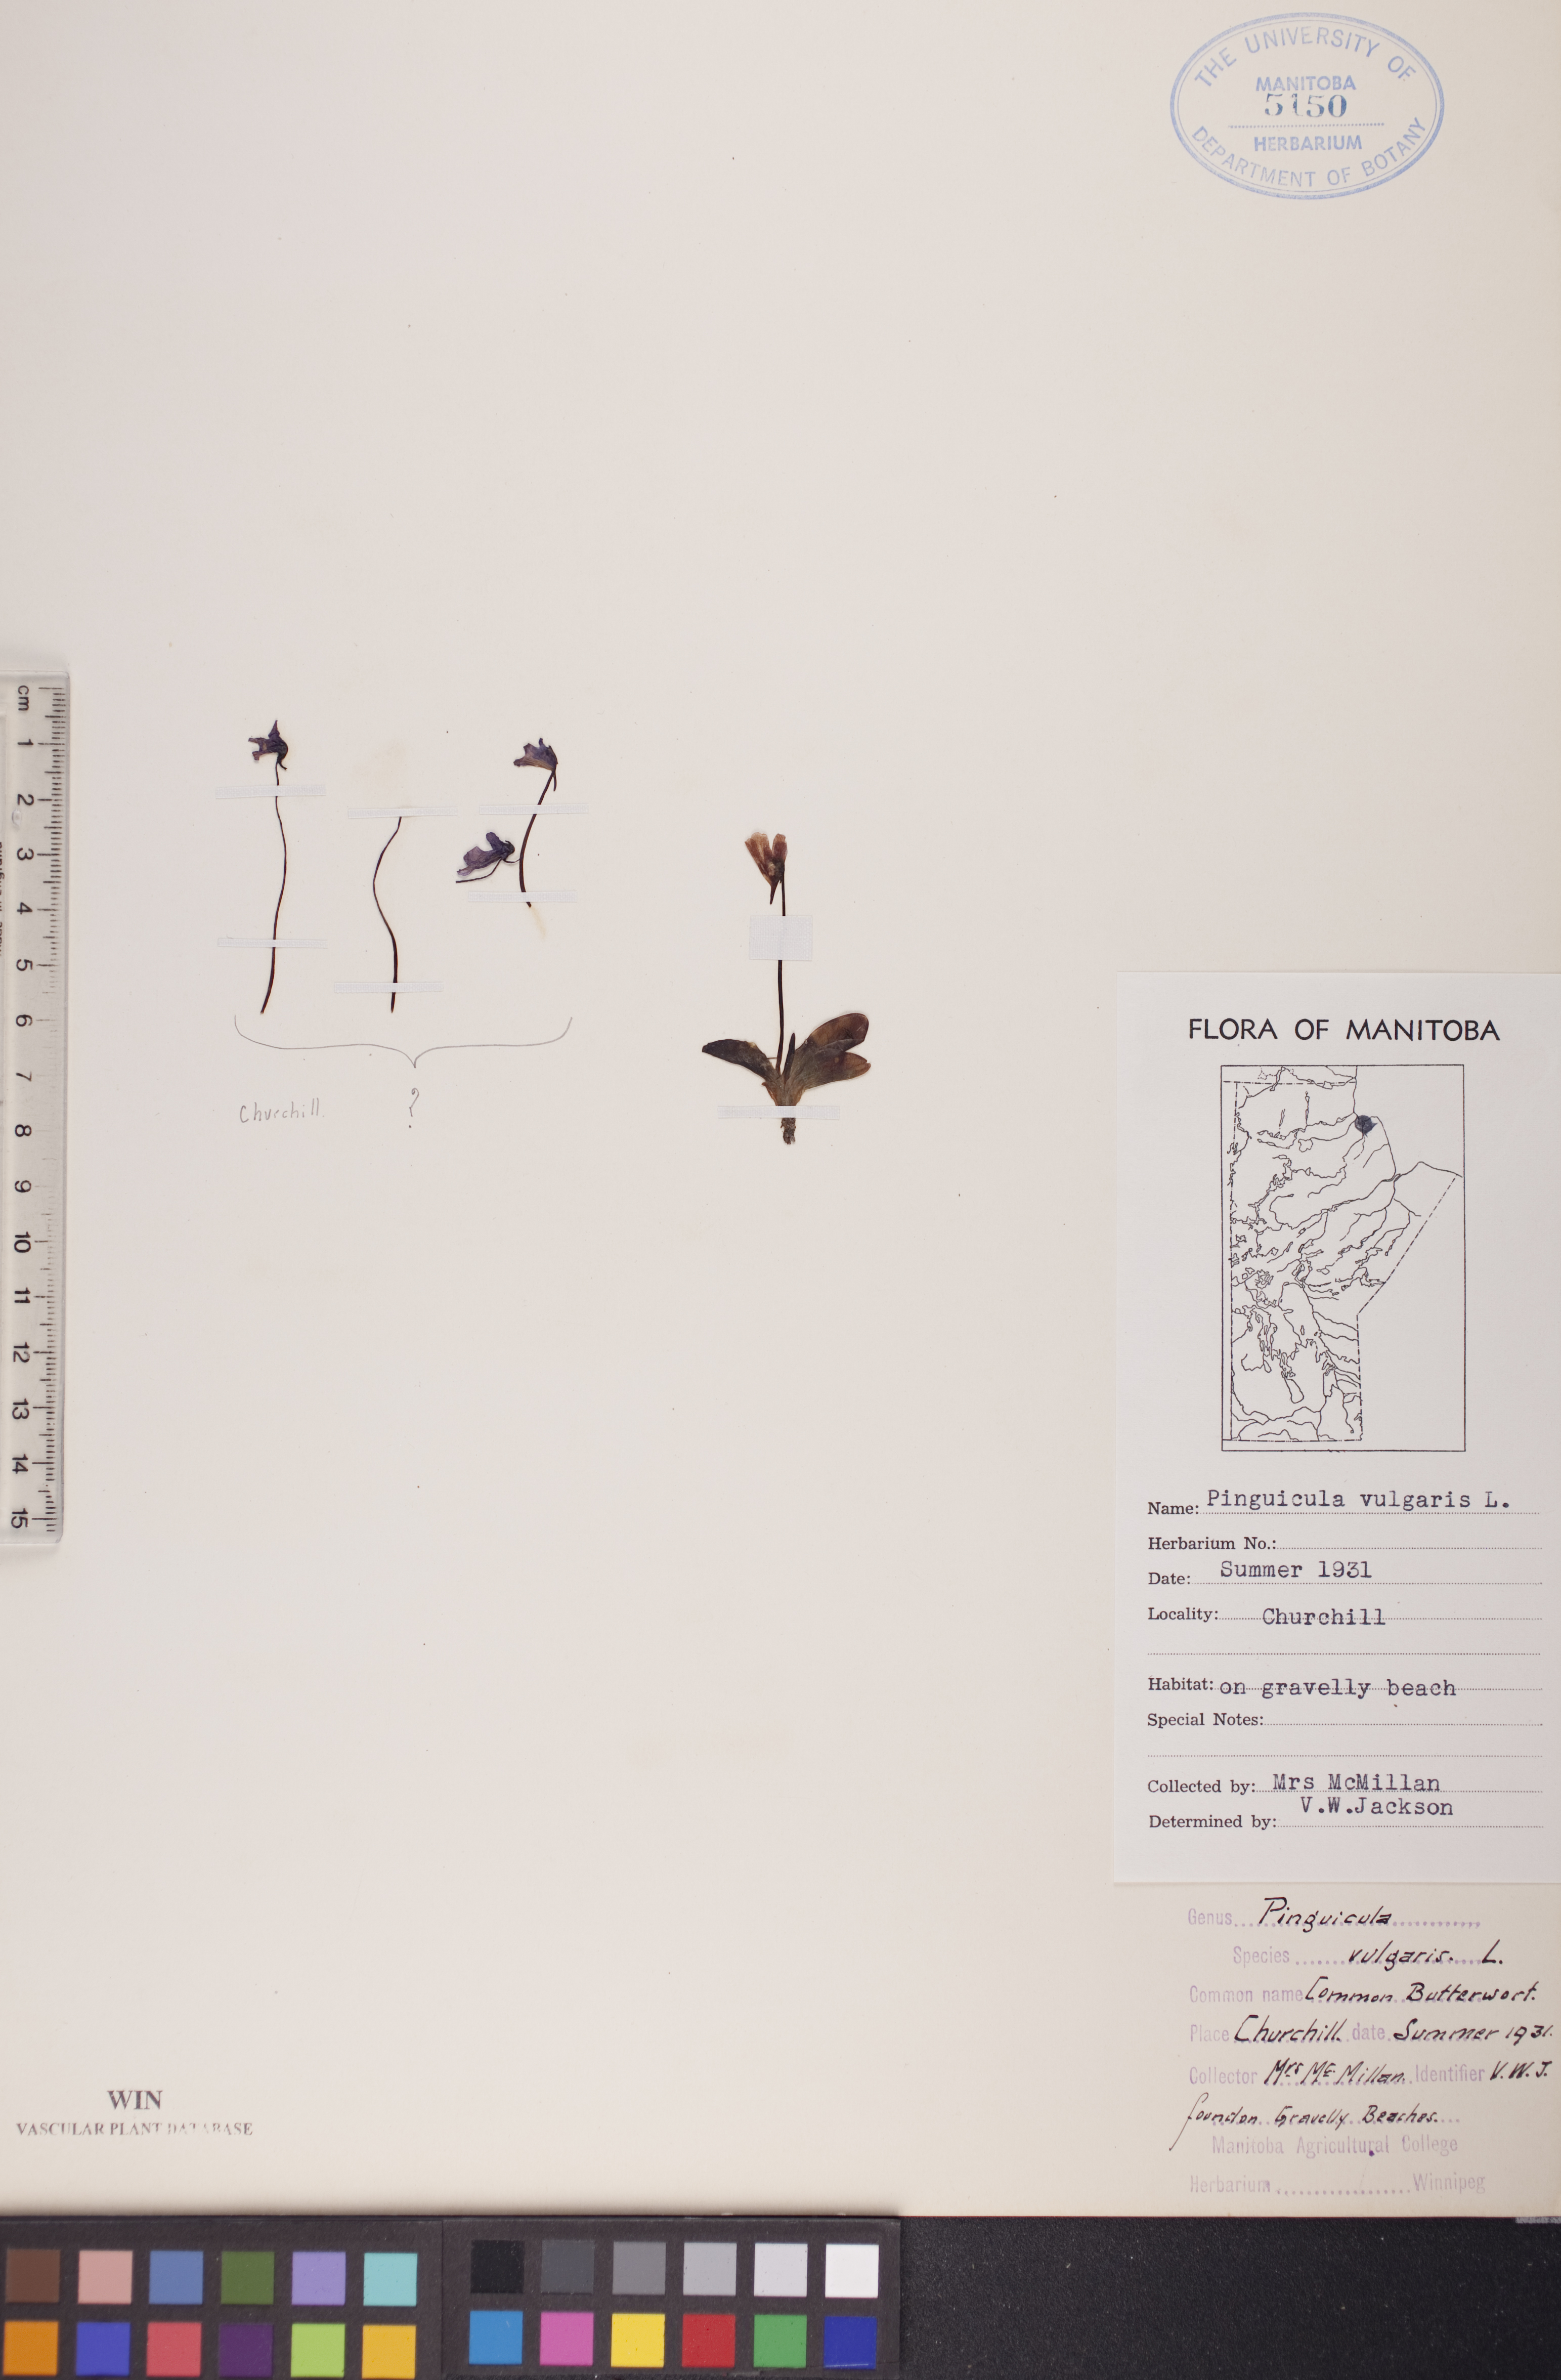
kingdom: Plantae
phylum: Tracheophyta
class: Magnoliopsida
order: Lamiales
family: Lentibulariaceae
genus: Pinguicula
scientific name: Pinguicula vulgaris
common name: Common butterwort
